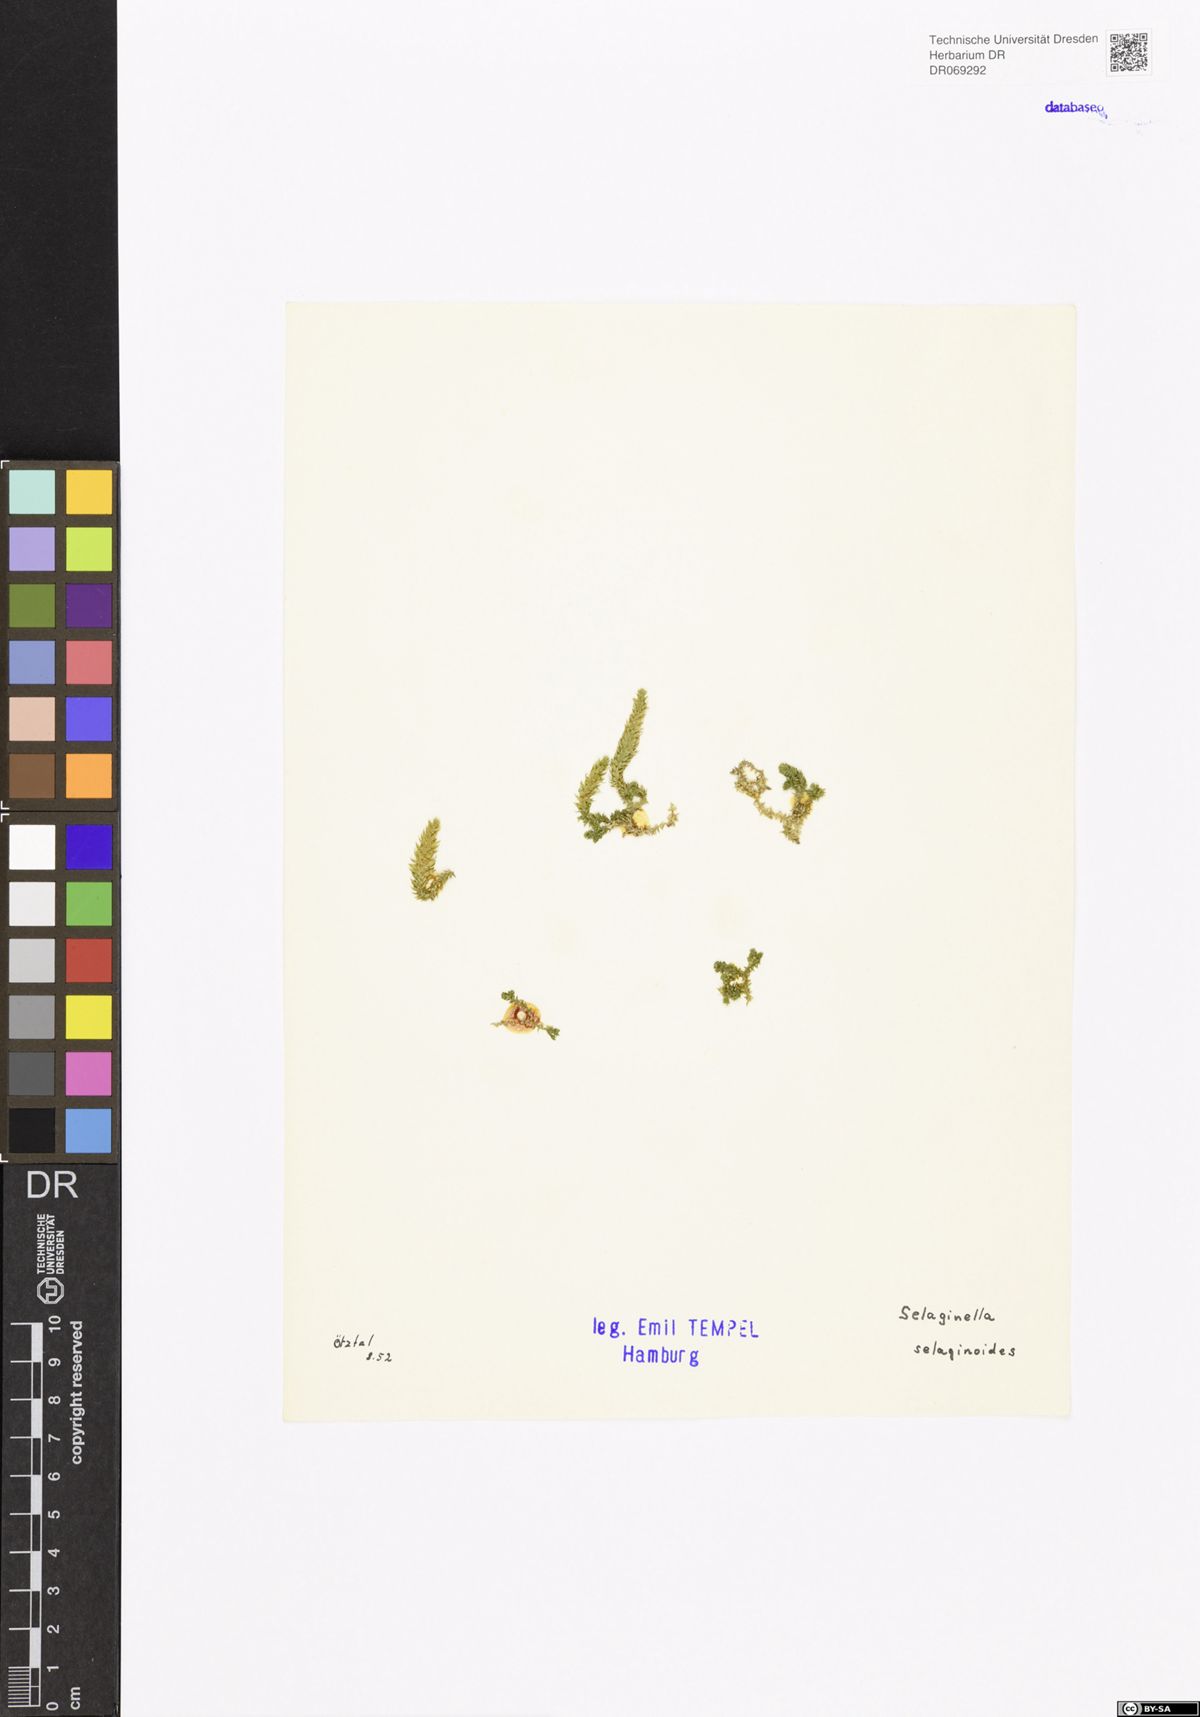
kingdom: Plantae
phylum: Tracheophyta
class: Lycopodiopsida
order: Selaginellales
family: Selaginellaceae
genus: Selaginella
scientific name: Selaginella selaginoides
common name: Prickly mountain-moss
